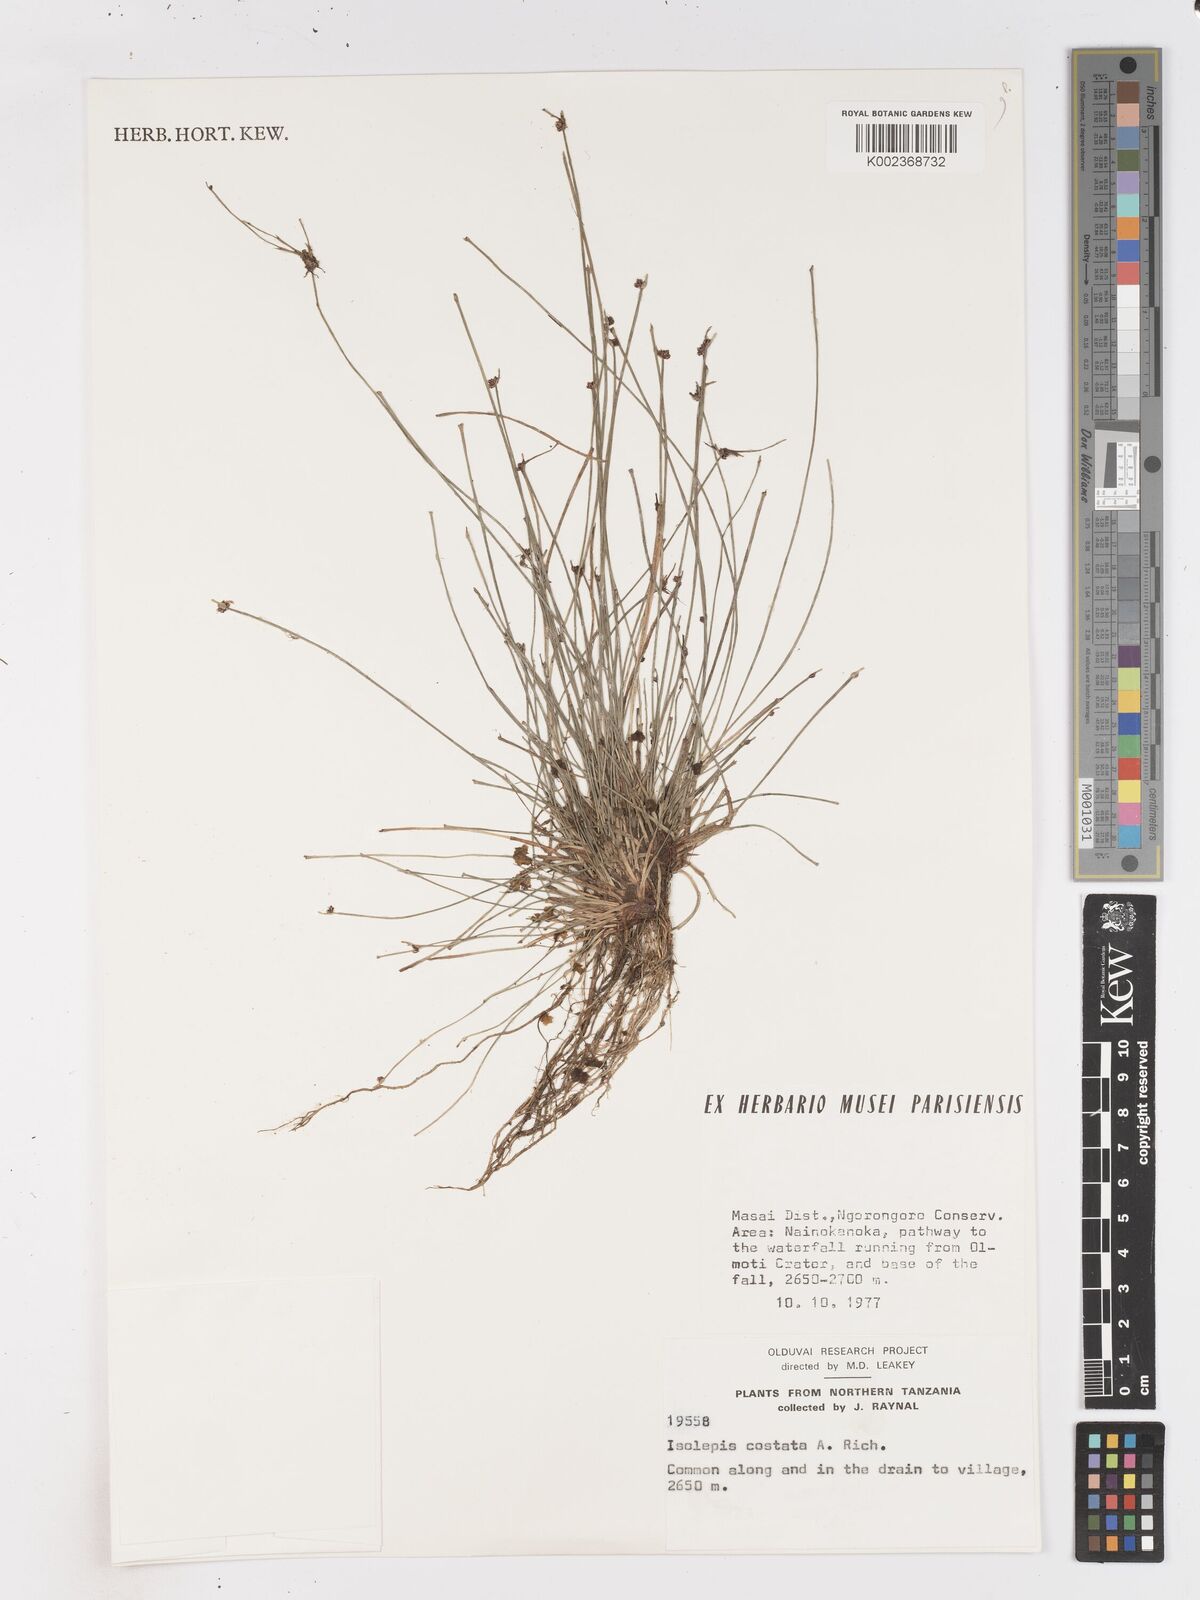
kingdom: Plantae
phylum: Tracheophyta
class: Liliopsida
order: Poales
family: Cyperaceae
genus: Isolepis
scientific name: Isolepis costata
